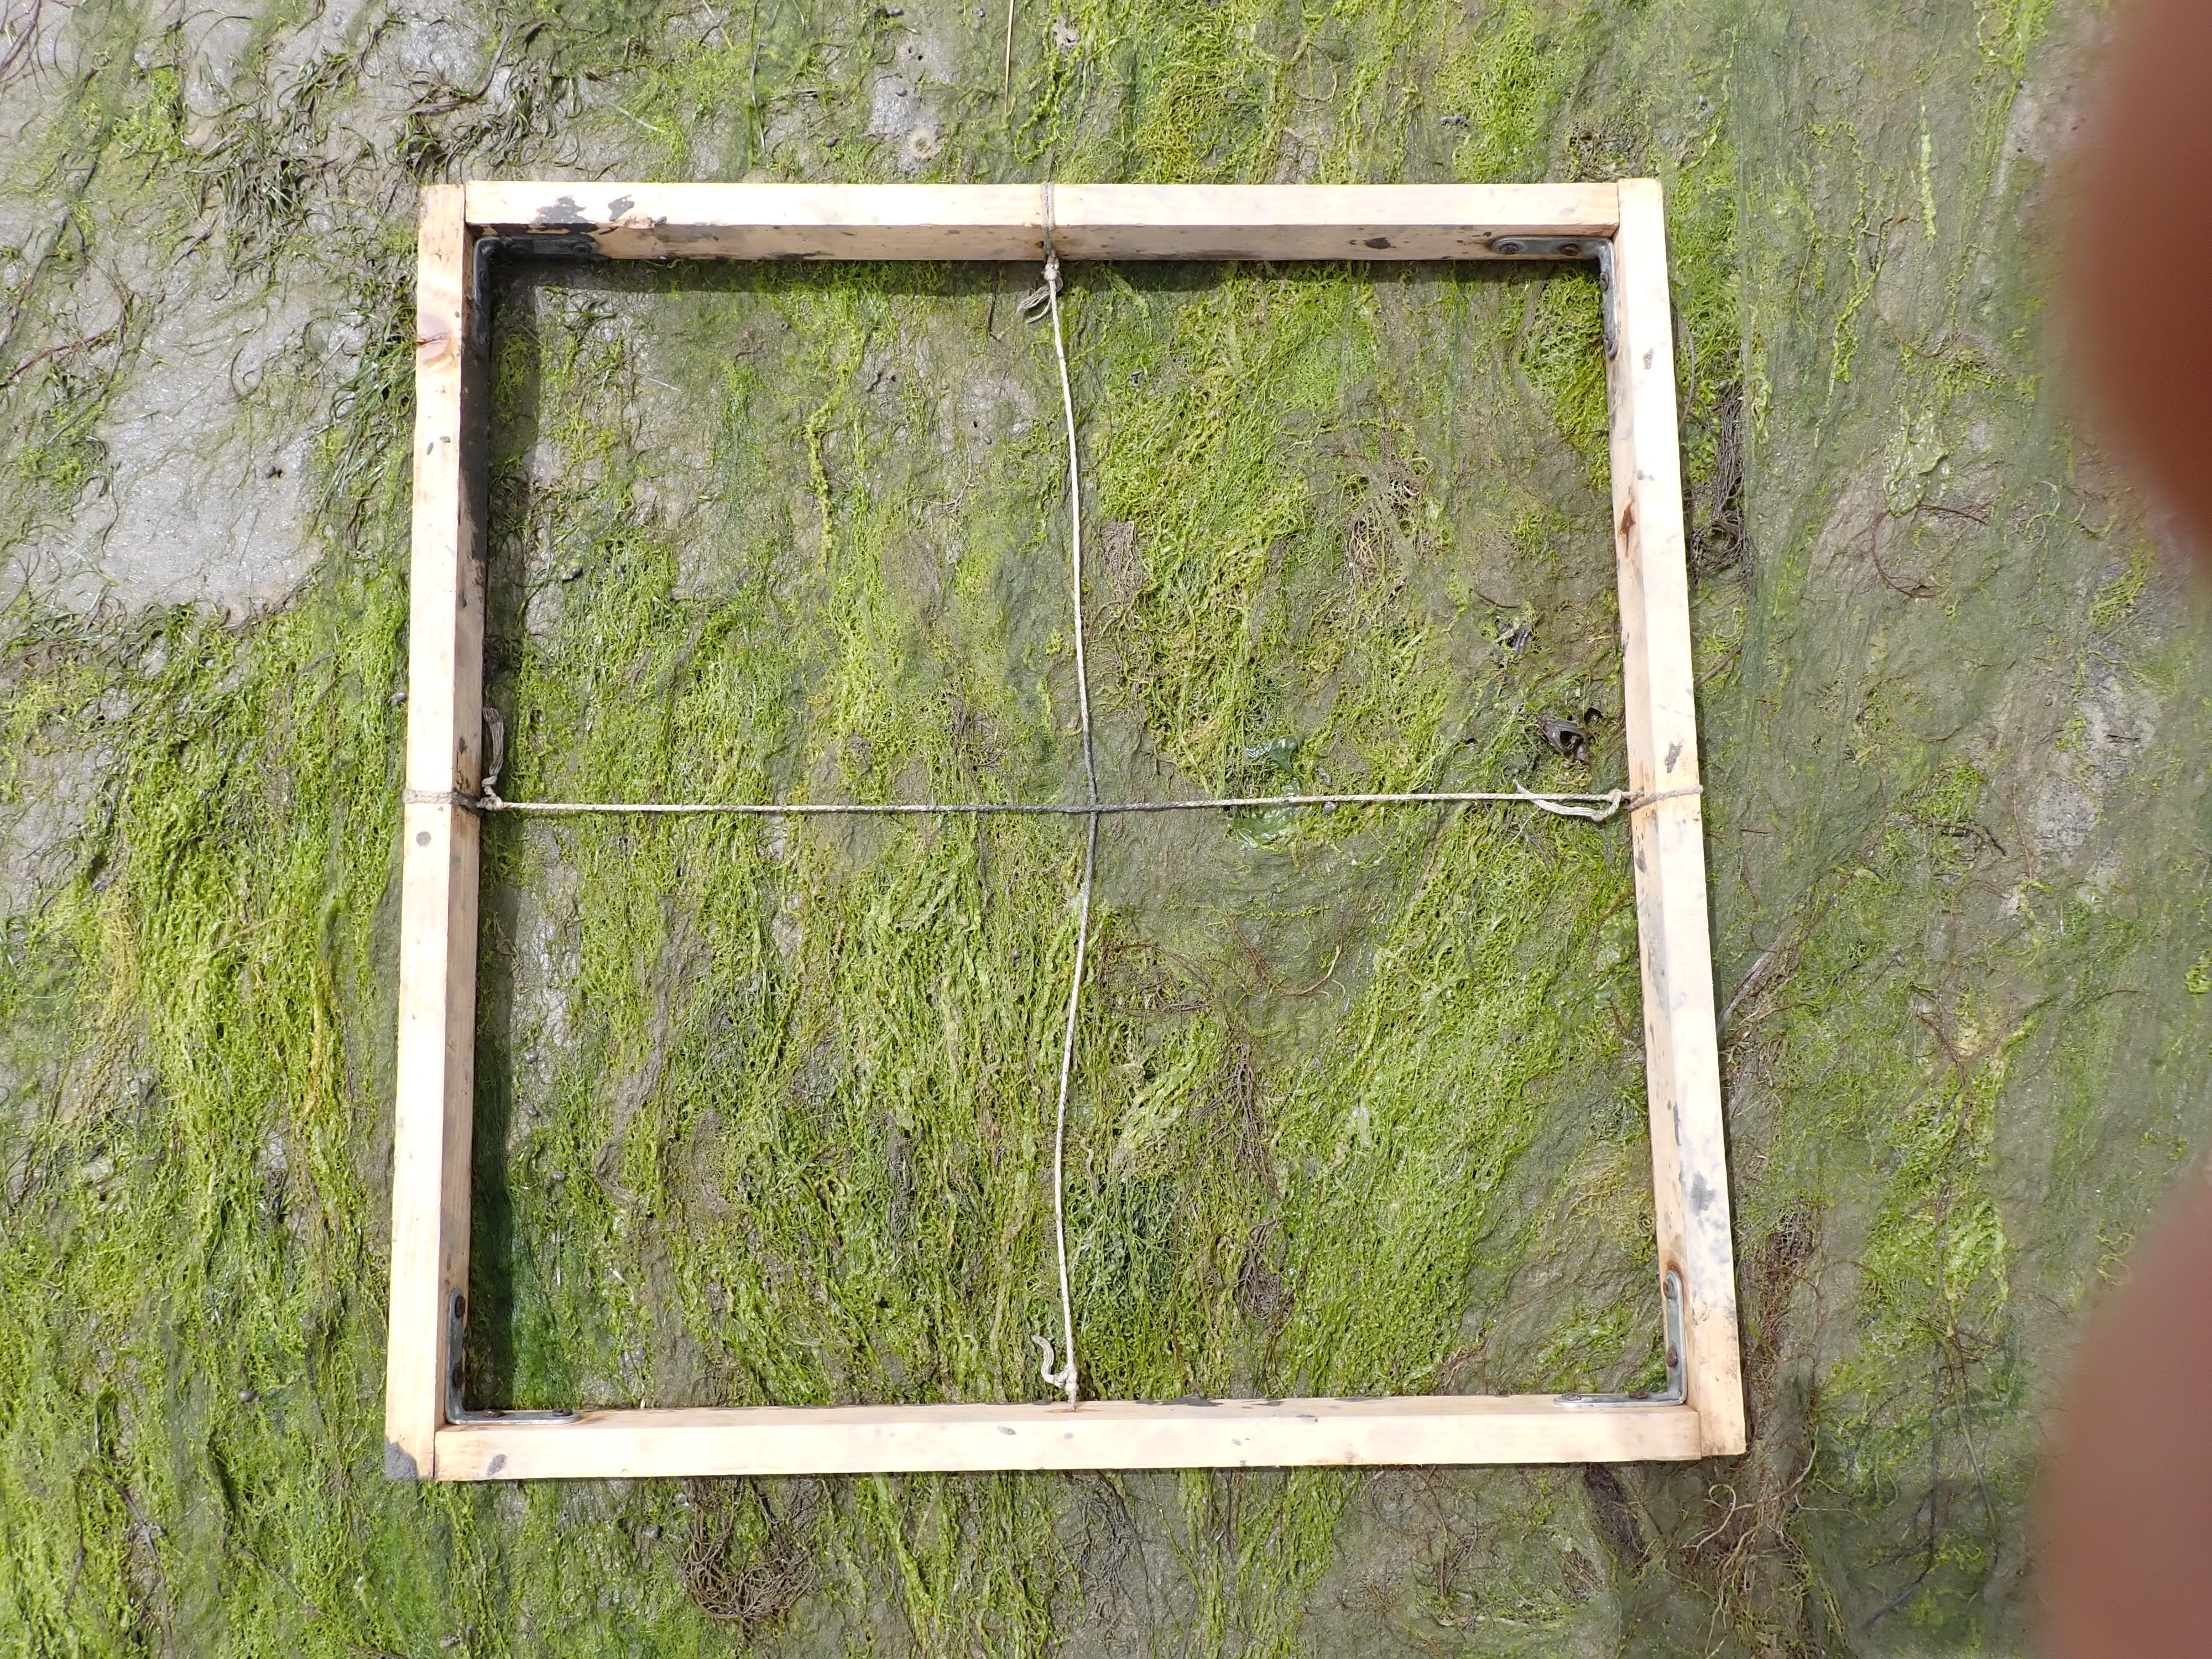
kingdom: Plantae
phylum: Chlorophyta
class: Ulvophyceae
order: Ulvales
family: Ulvaceae
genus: Ulva
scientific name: Ulva
